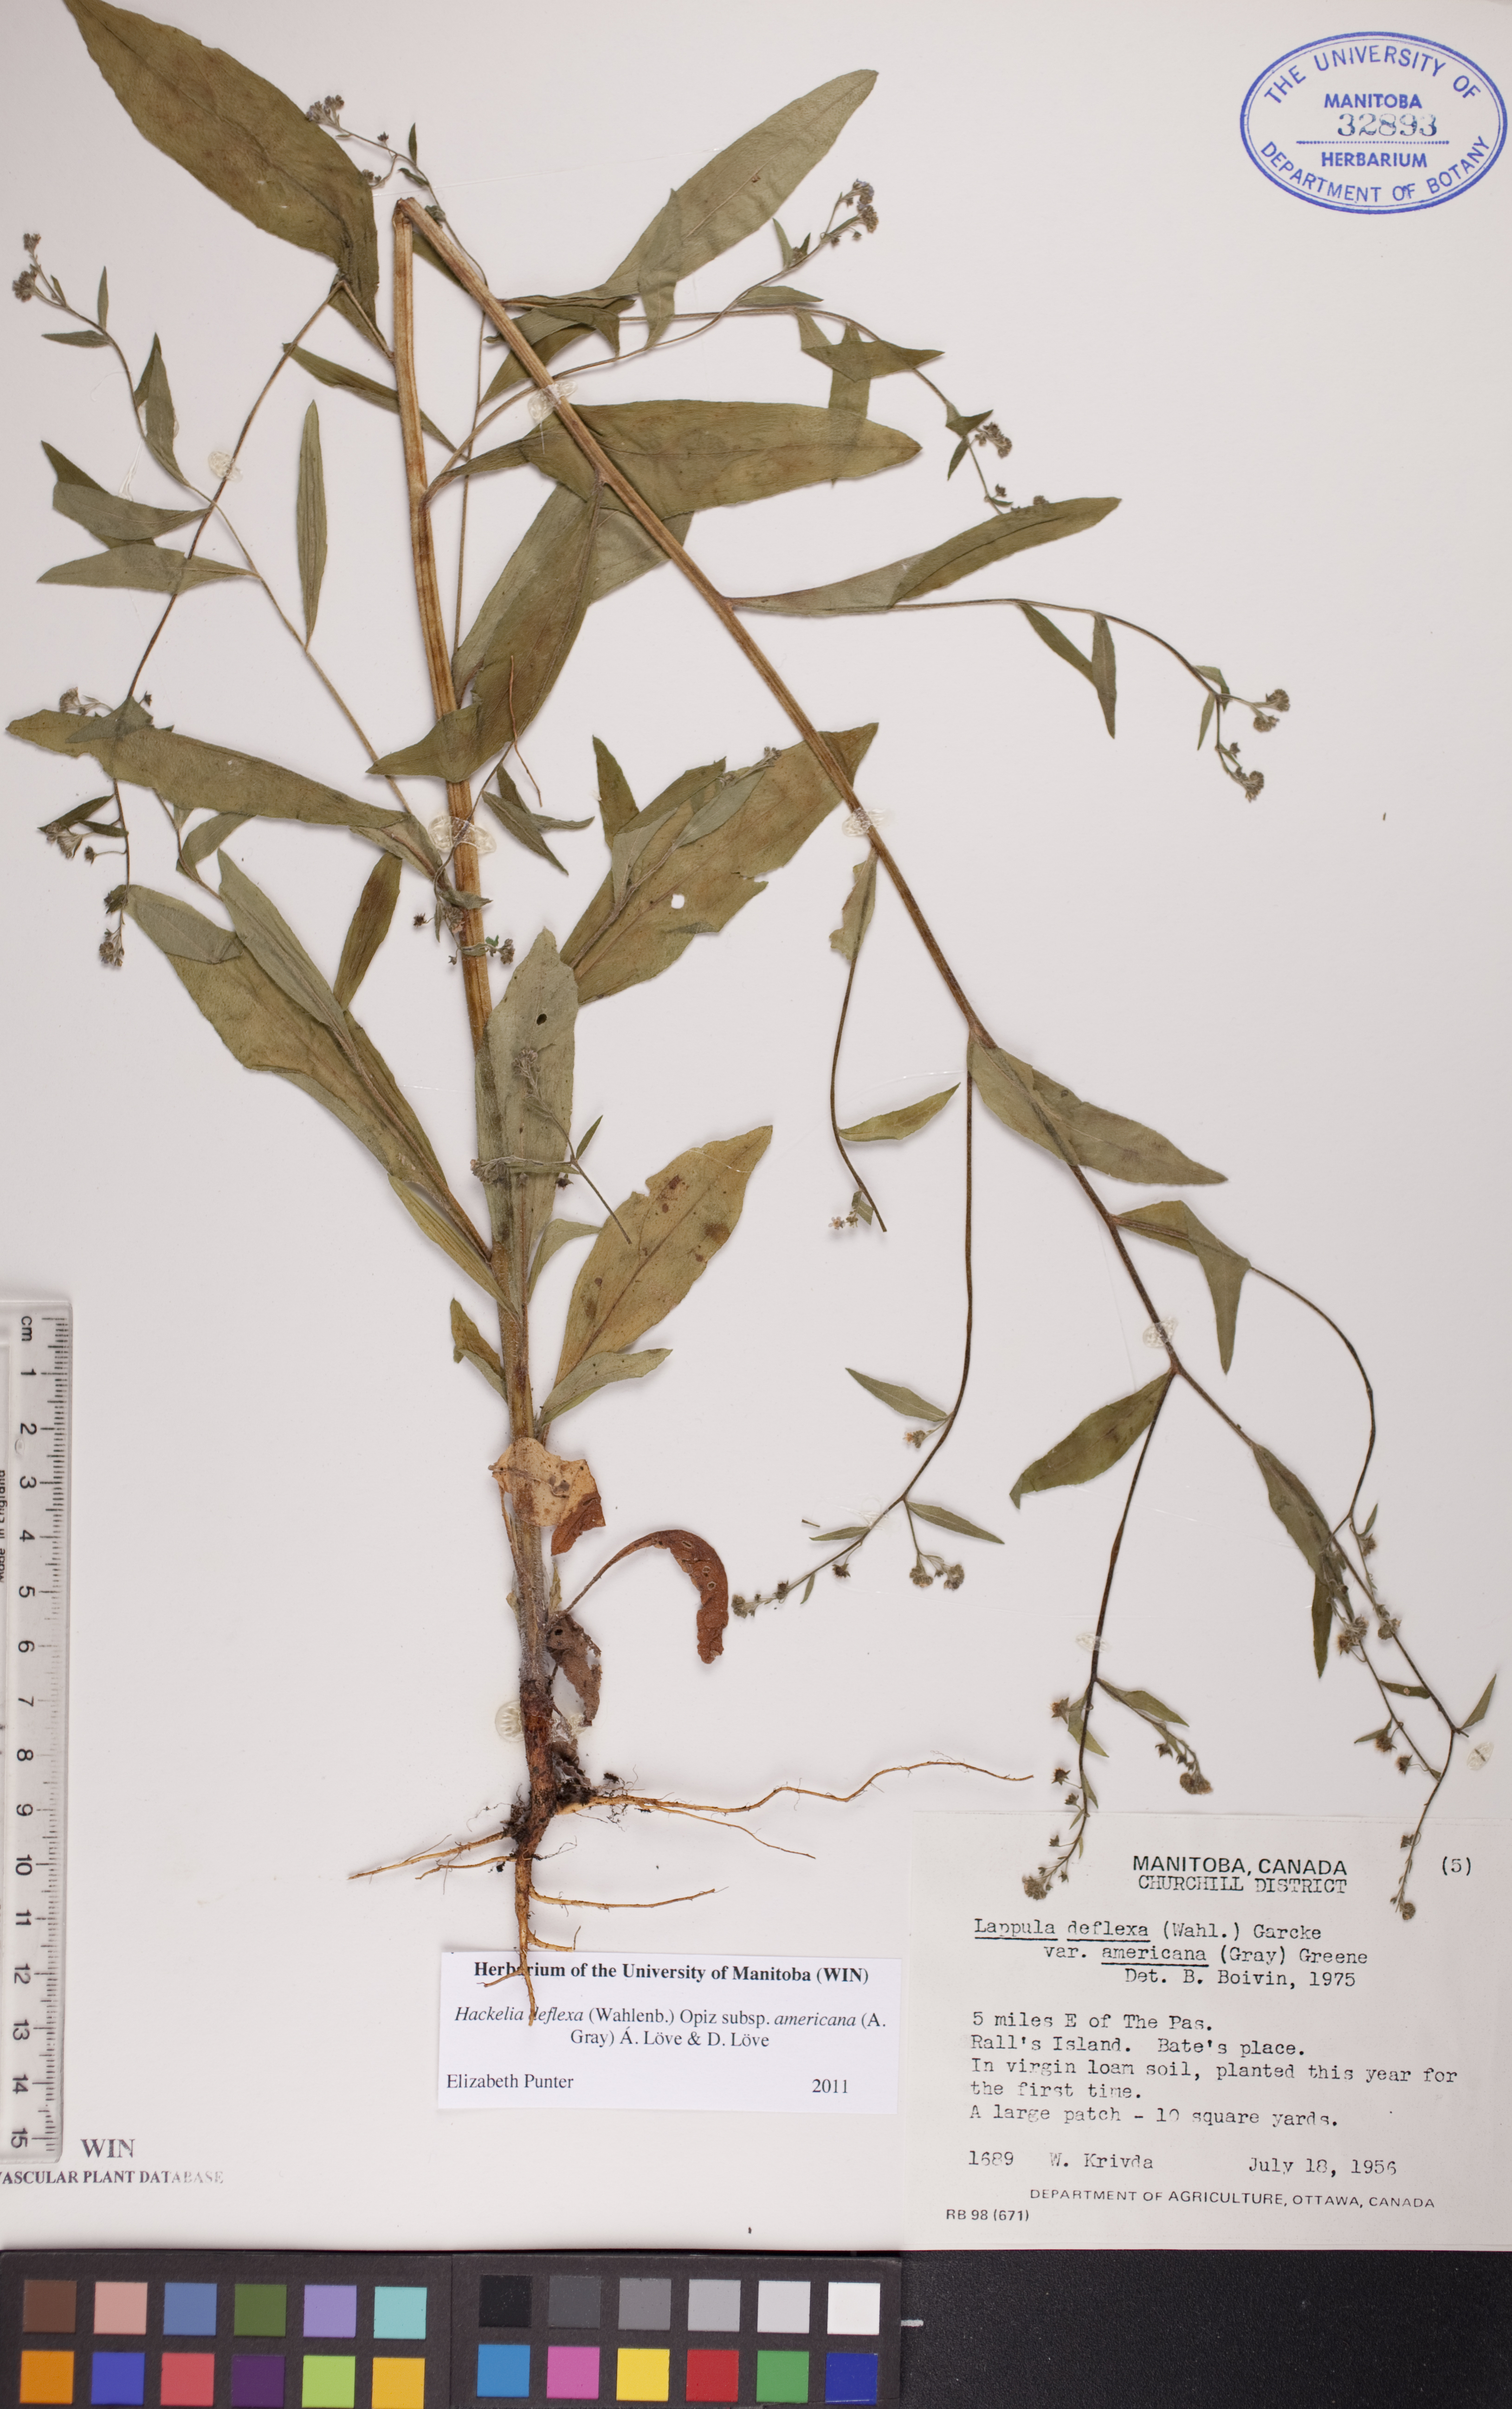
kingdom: Plantae
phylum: Tracheophyta
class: Magnoliopsida
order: Boraginales
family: Boraginaceae
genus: Hackelia
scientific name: Hackelia deflexa
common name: Nodding stickseed
